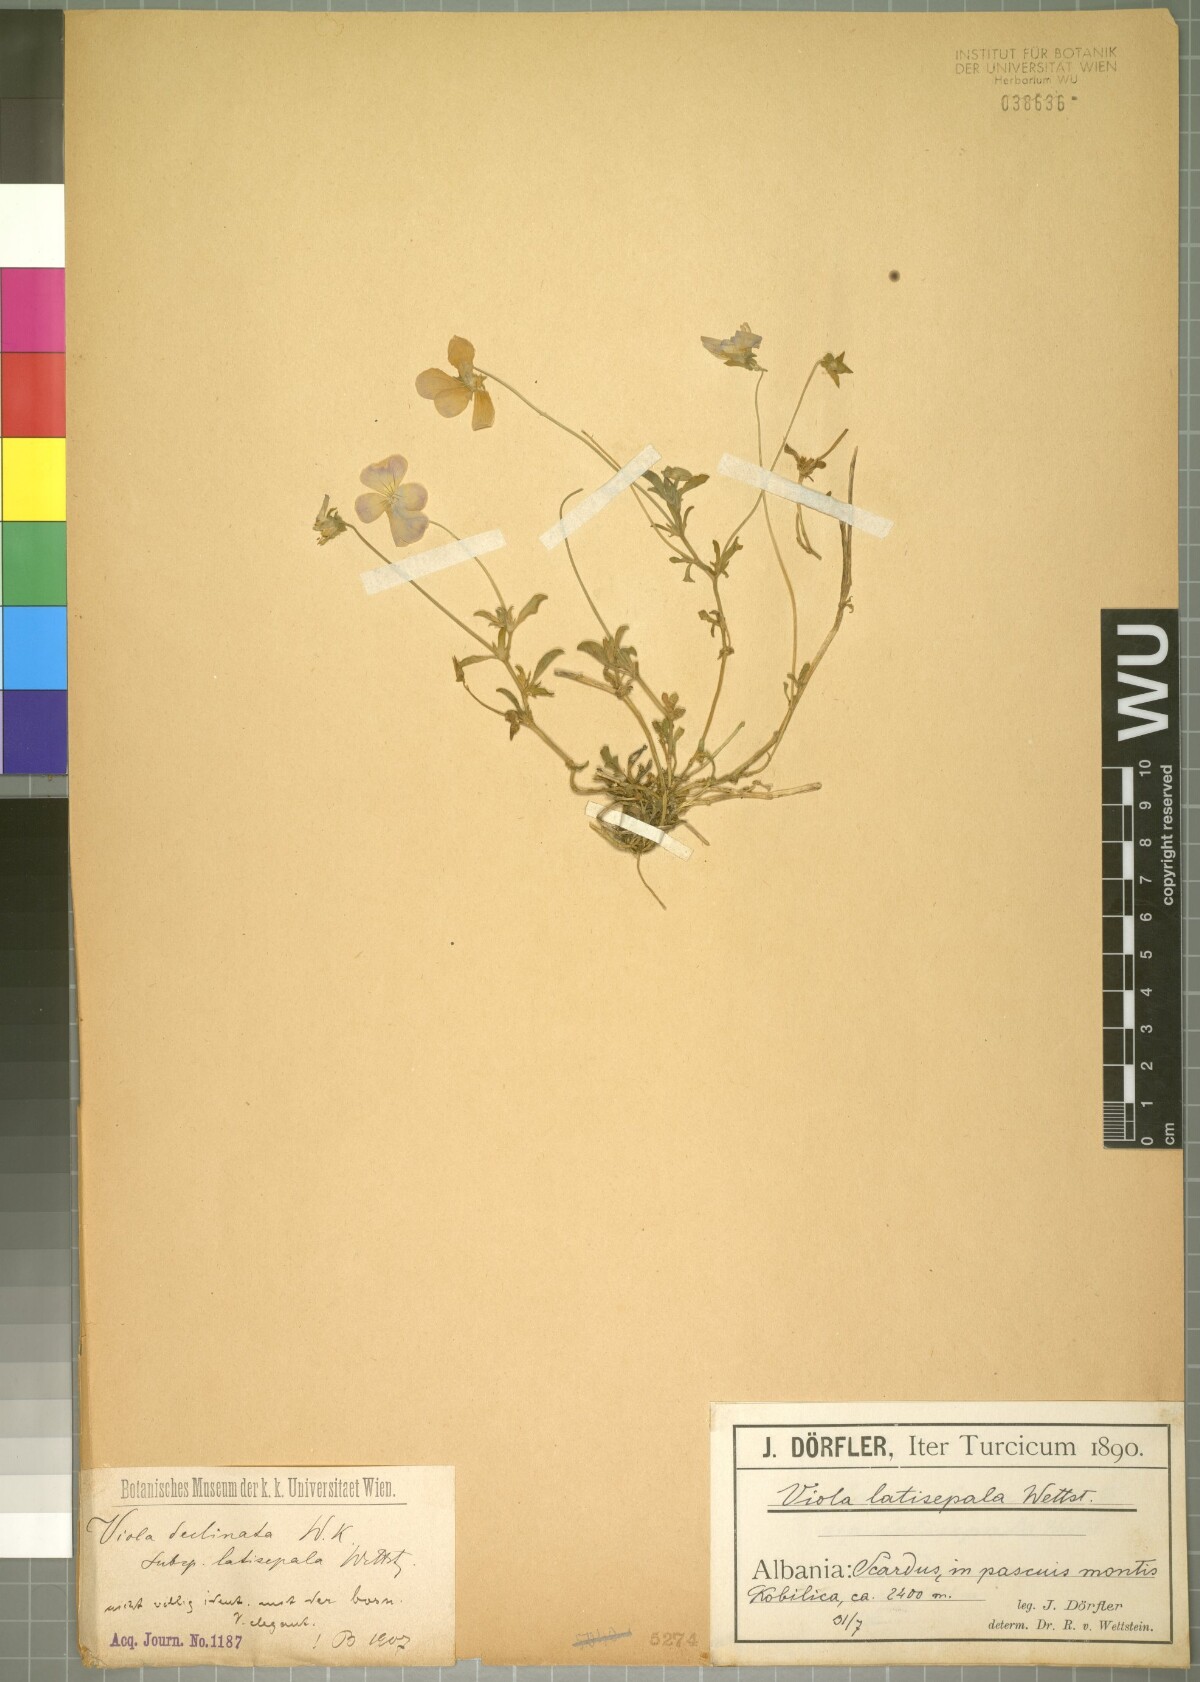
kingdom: Plantae
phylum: Tracheophyta
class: Magnoliopsida
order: Malpighiales
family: Violaceae
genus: Viola
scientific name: Viola tricolor
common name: Pansy
